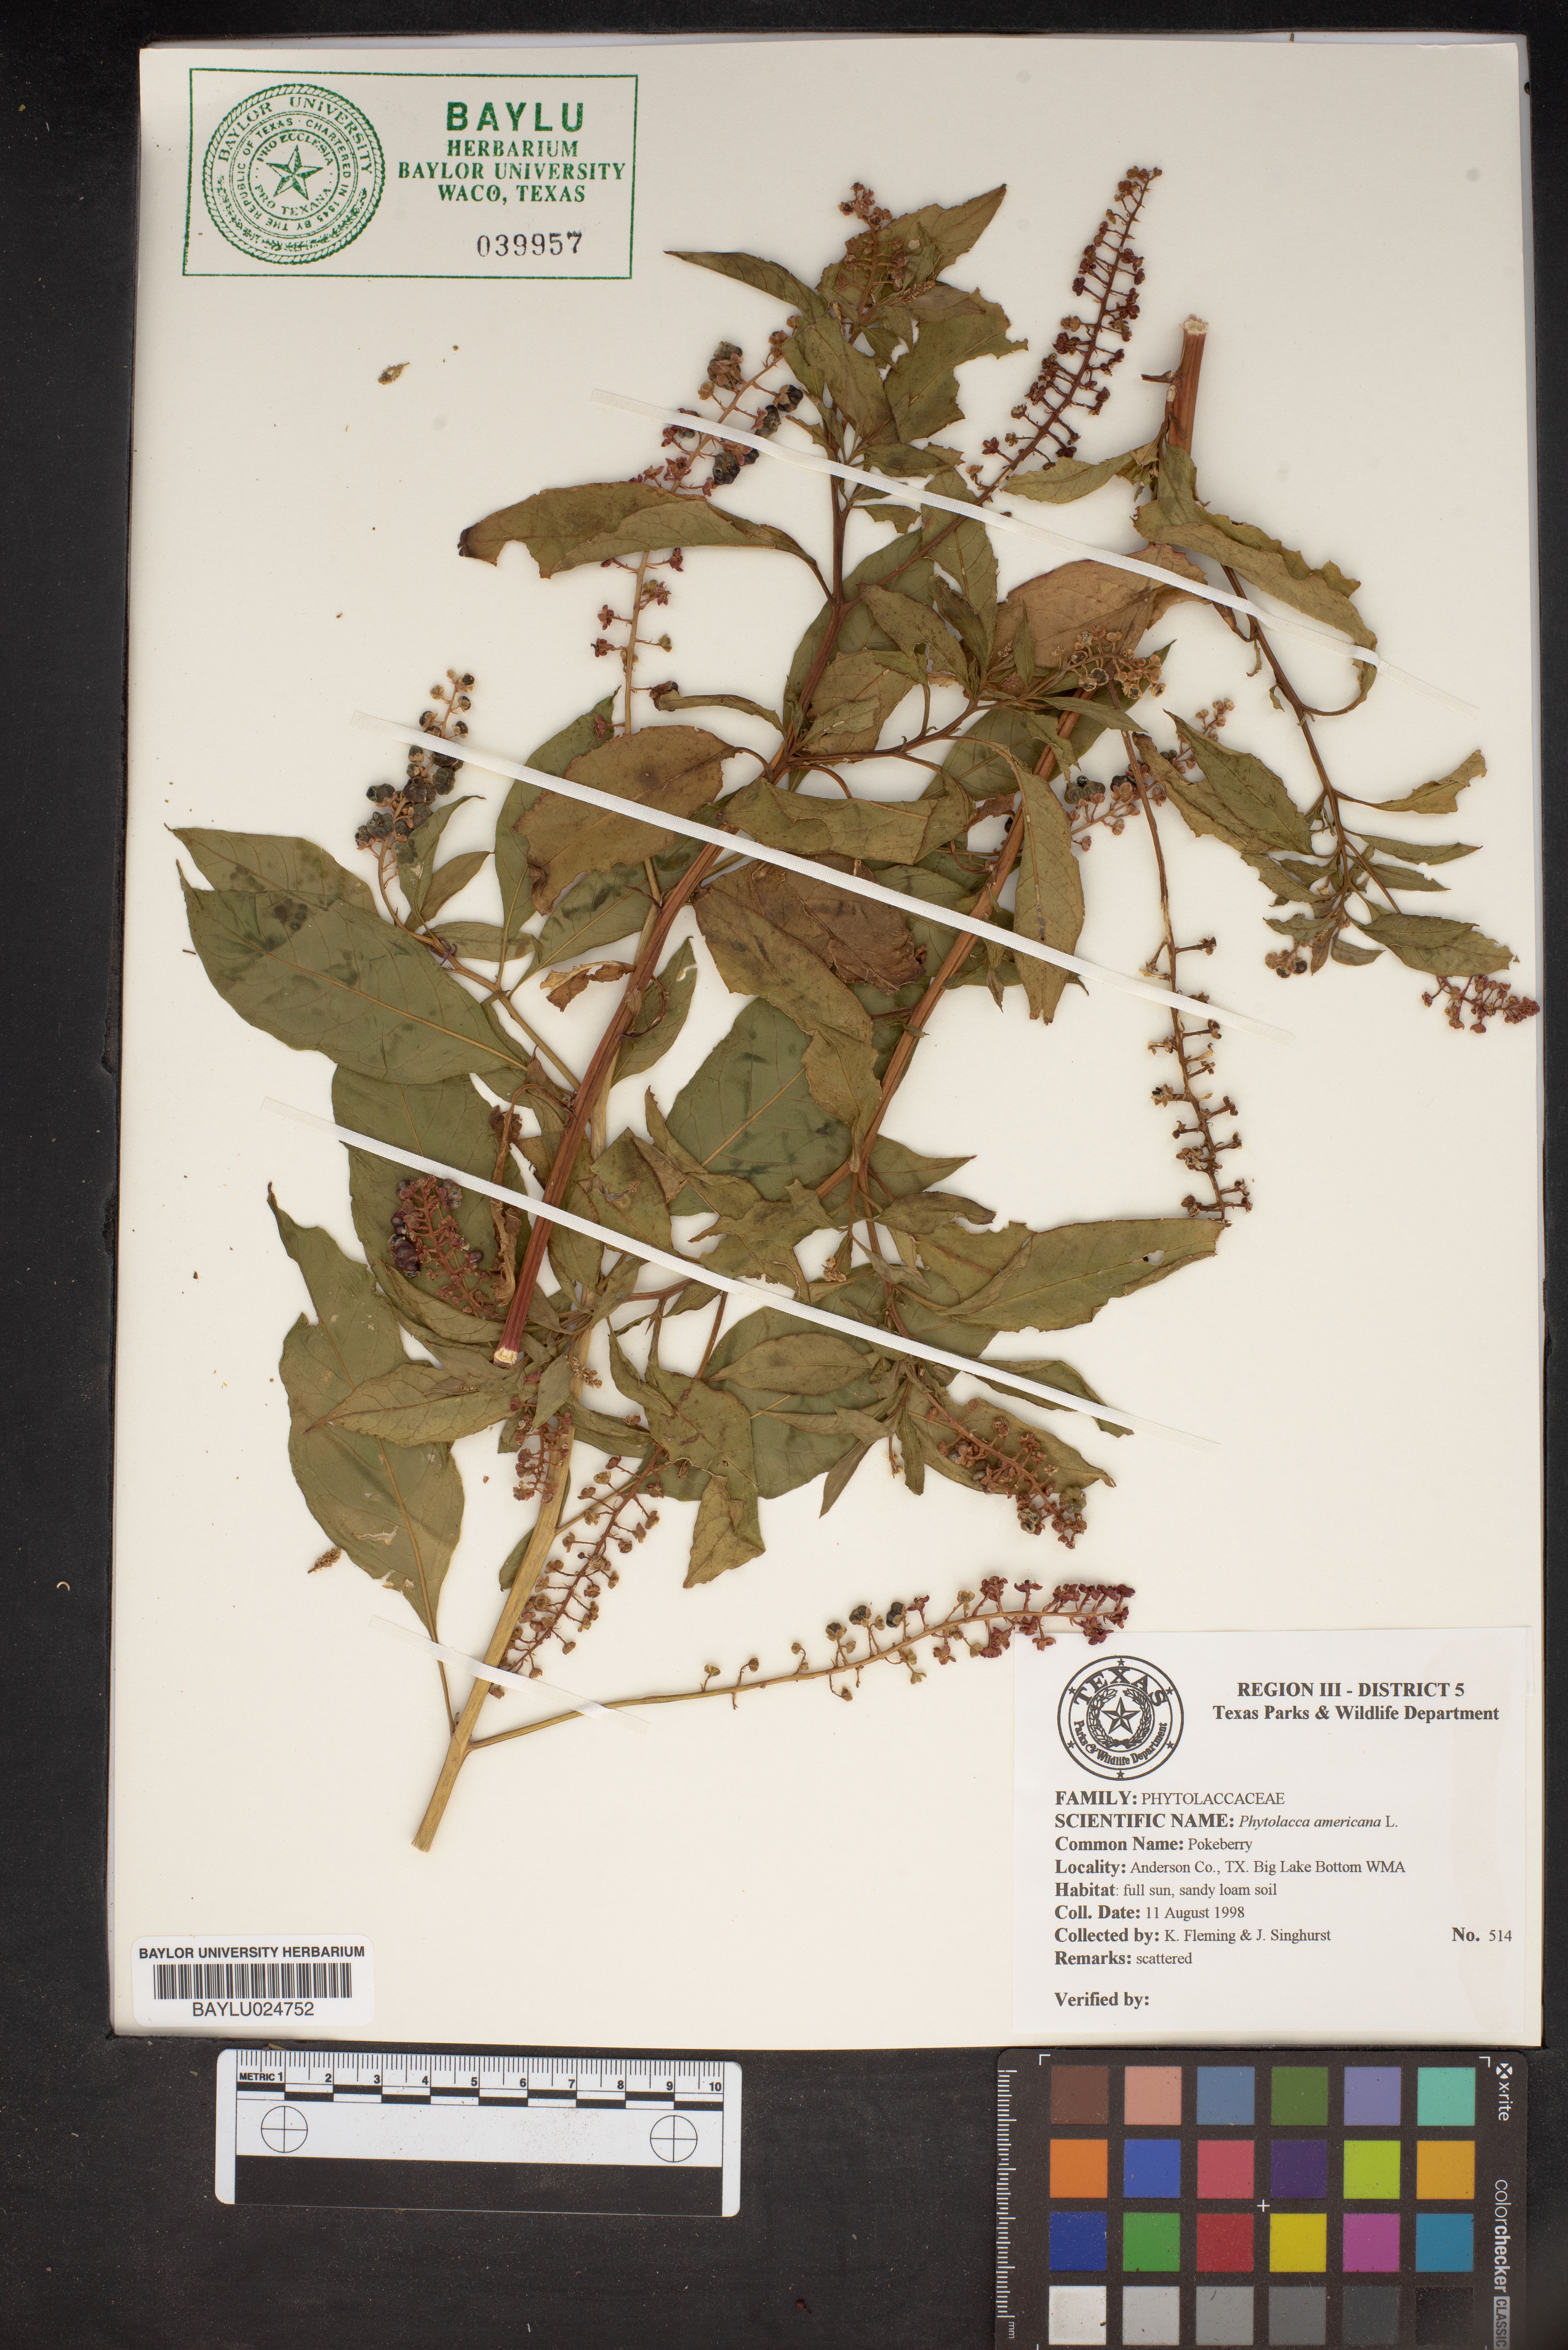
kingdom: Plantae
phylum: Tracheophyta
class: Magnoliopsida
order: Caryophyllales
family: Phytolaccaceae
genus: Phytolacca
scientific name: Phytolacca americana
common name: American pokeweed
